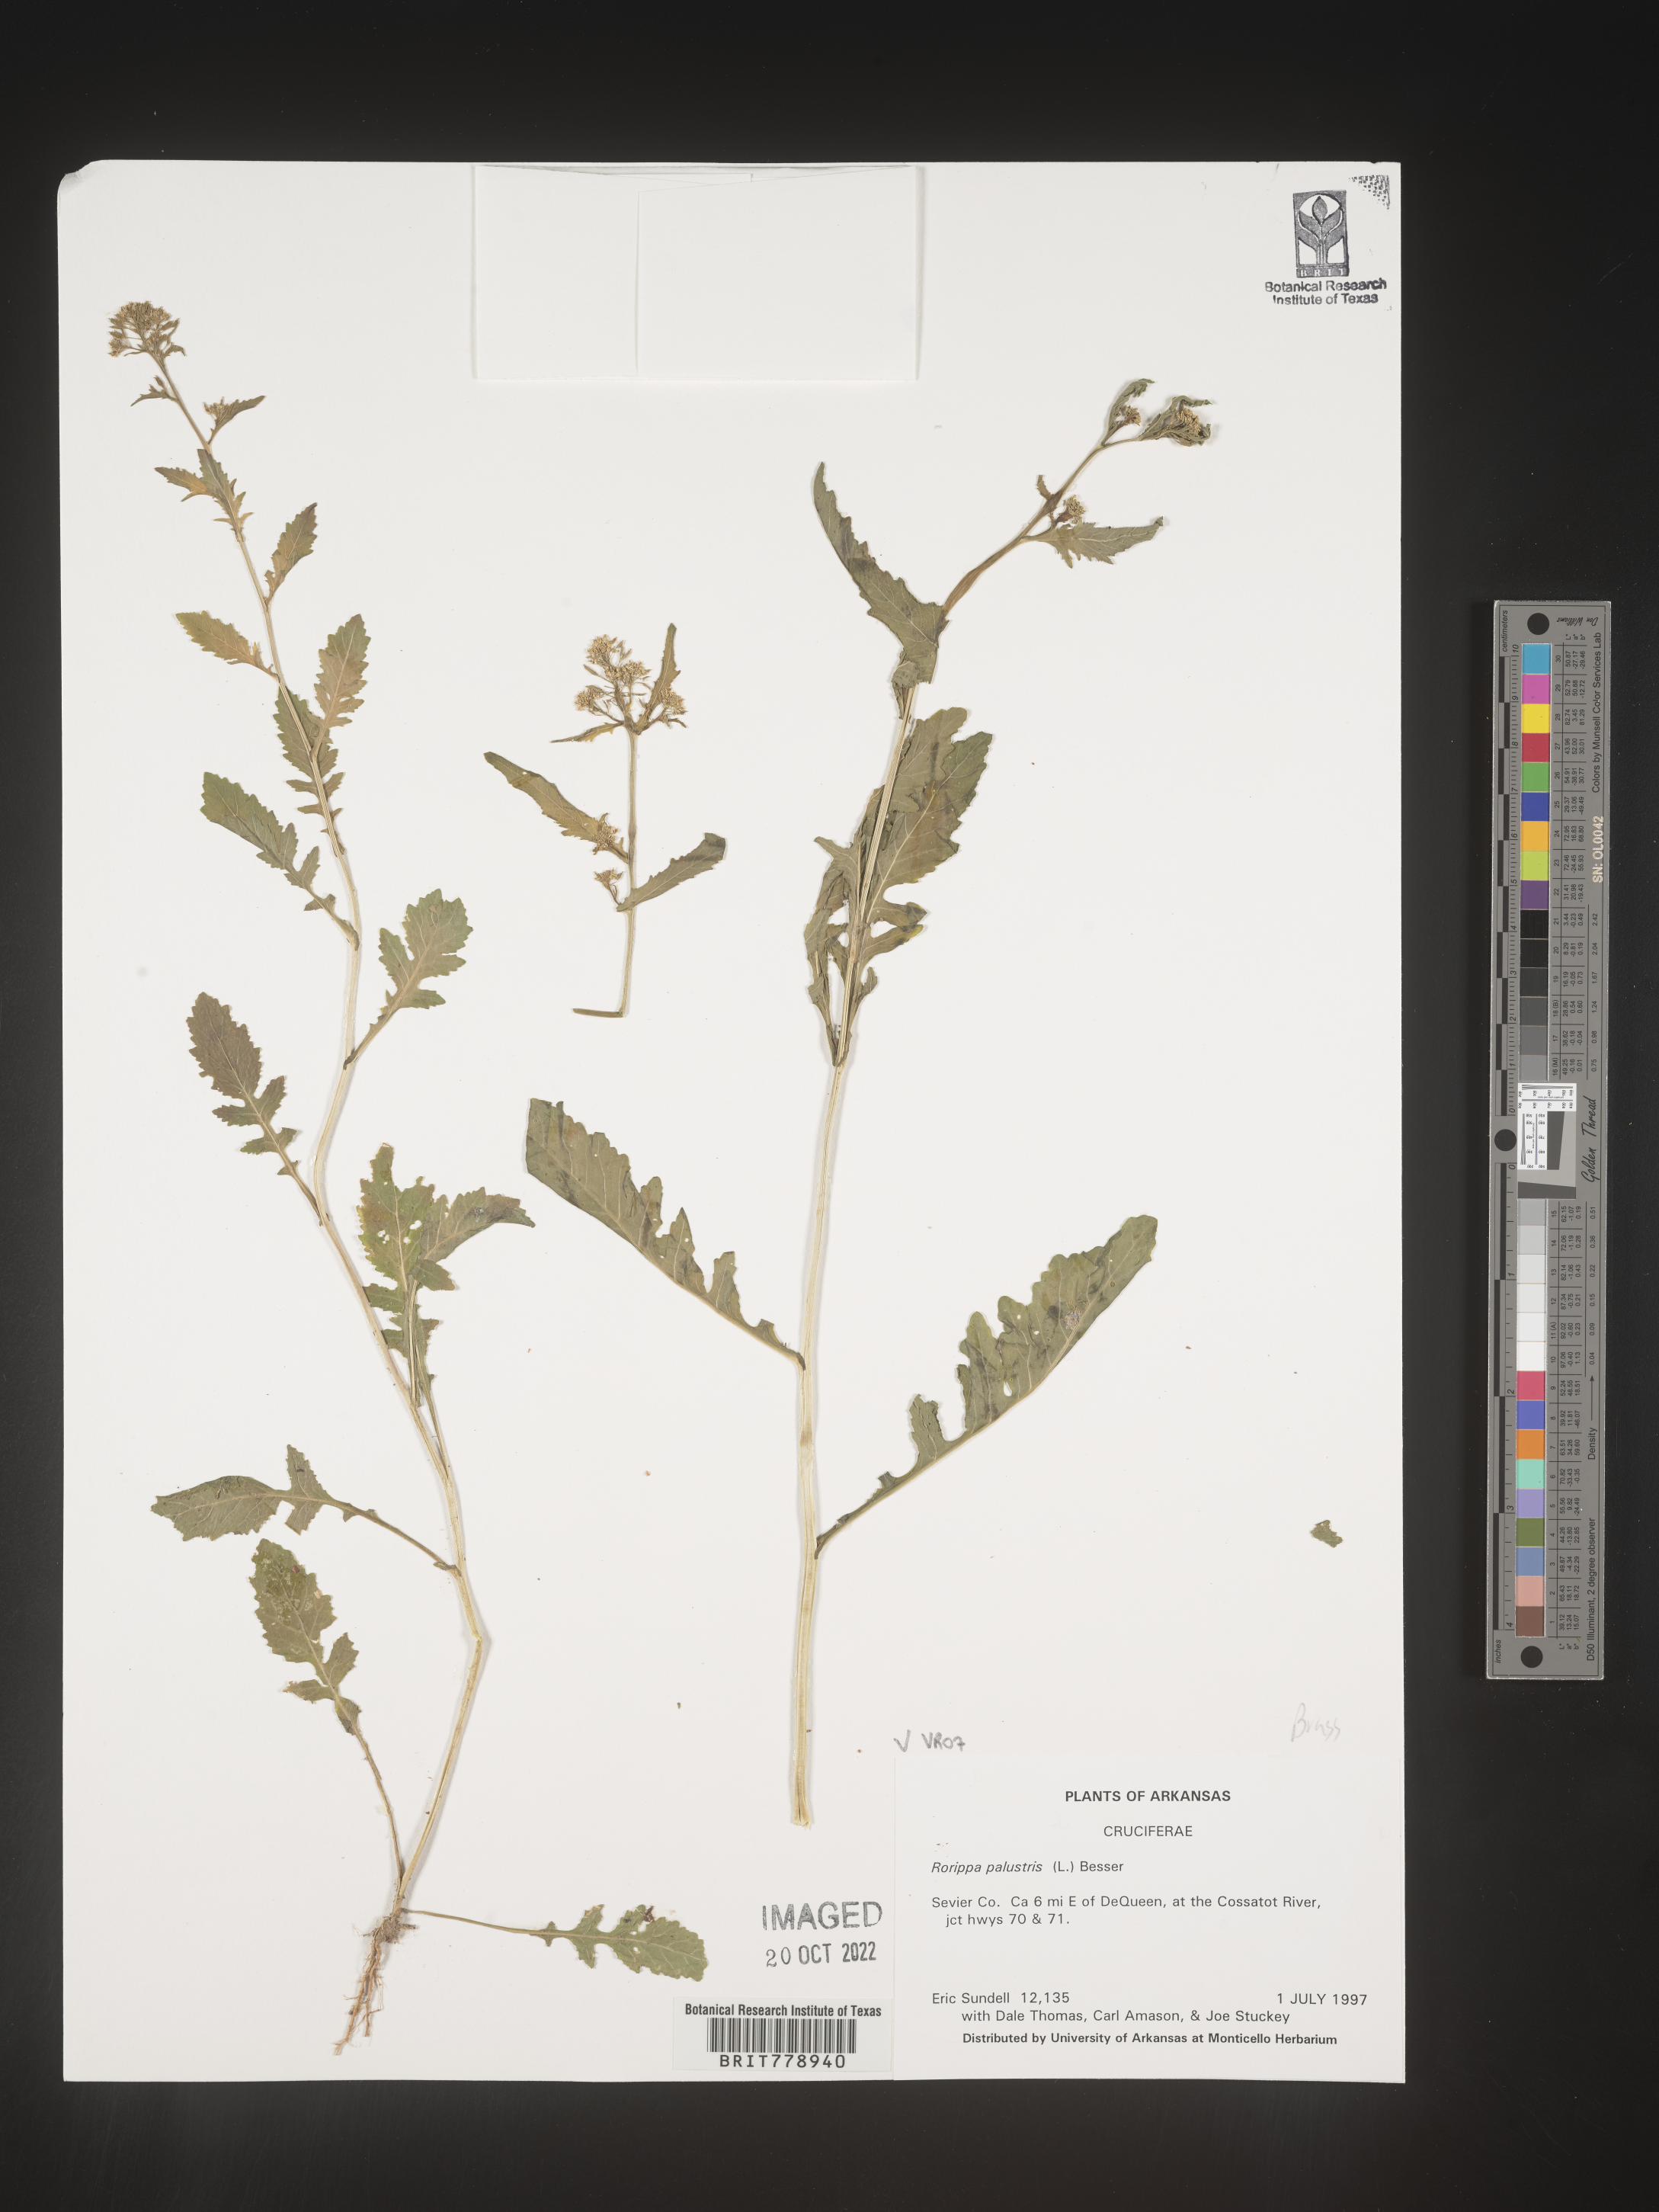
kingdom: Plantae
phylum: Tracheophyta
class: Magnoliopsida
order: Brassicales
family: Brassicaceae
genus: Rorippa
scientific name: Rorippa palustris
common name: Marsh yellow-cress
